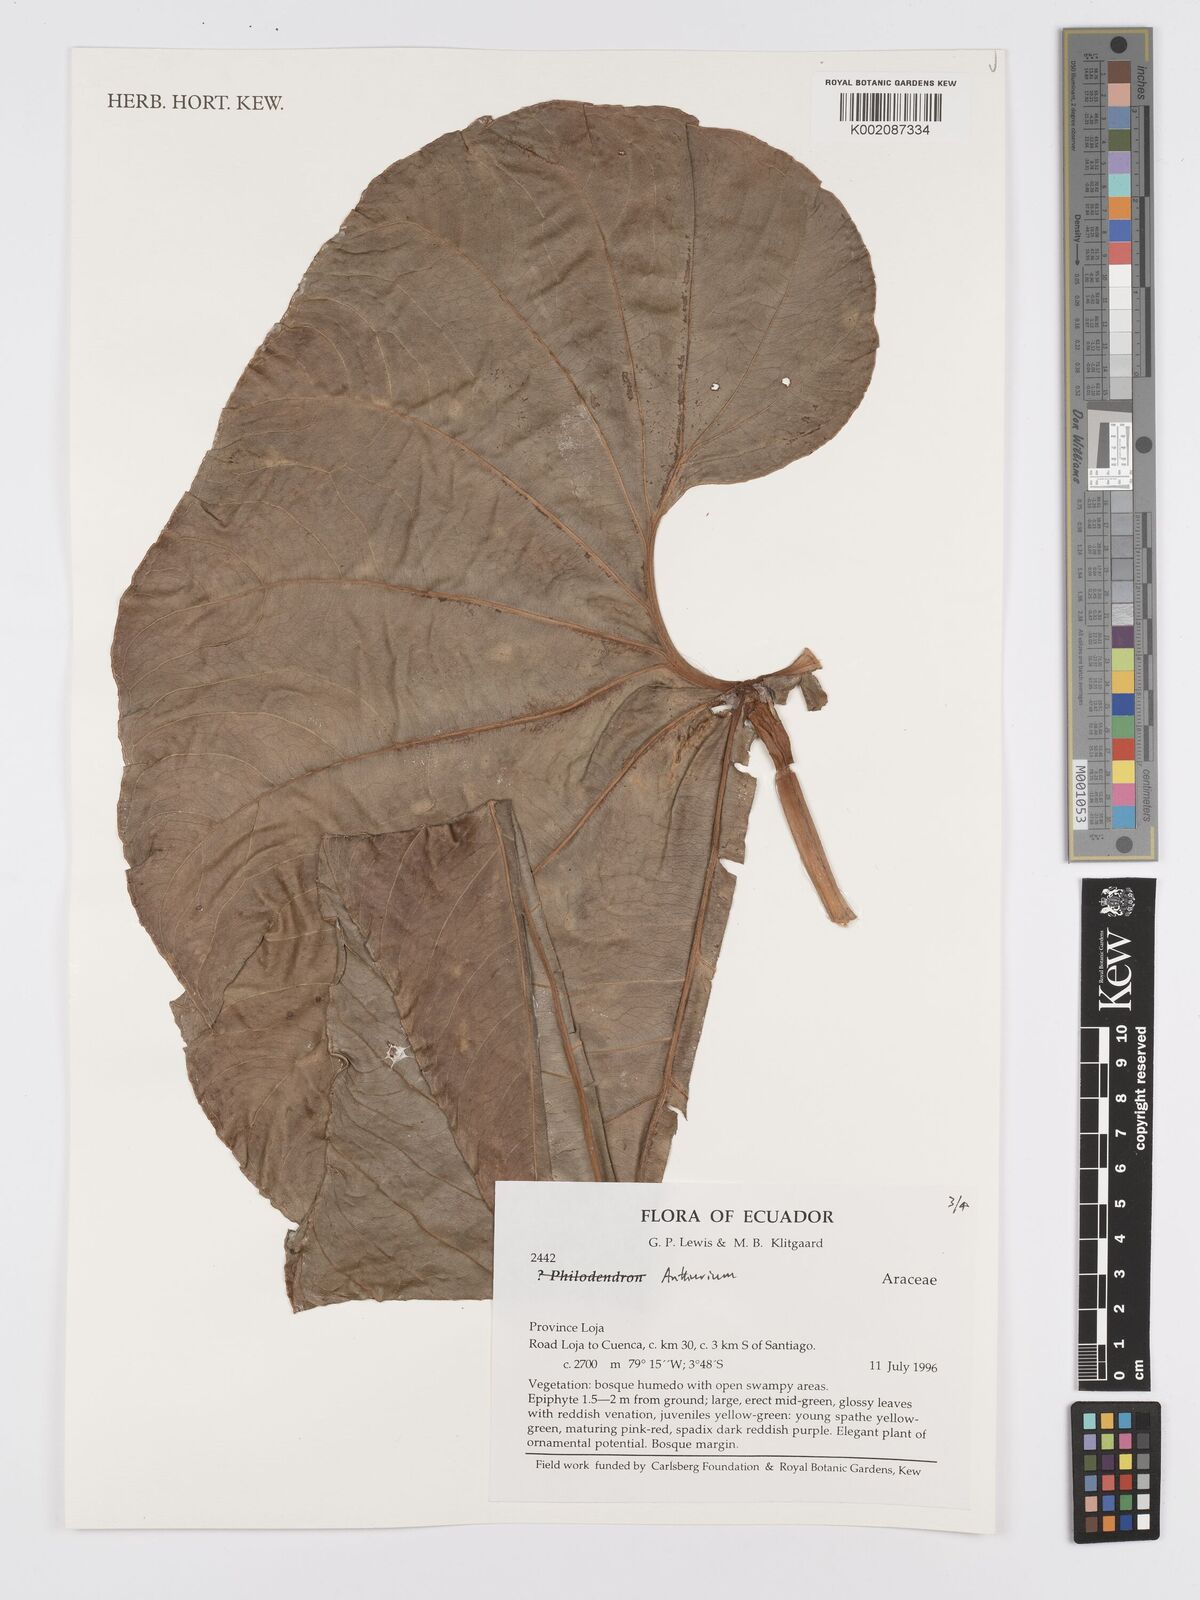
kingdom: Plantae
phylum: Tracheophyta
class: Liliopsida
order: Alismatales
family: Araceae
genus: Anthurium
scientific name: Anthurium
